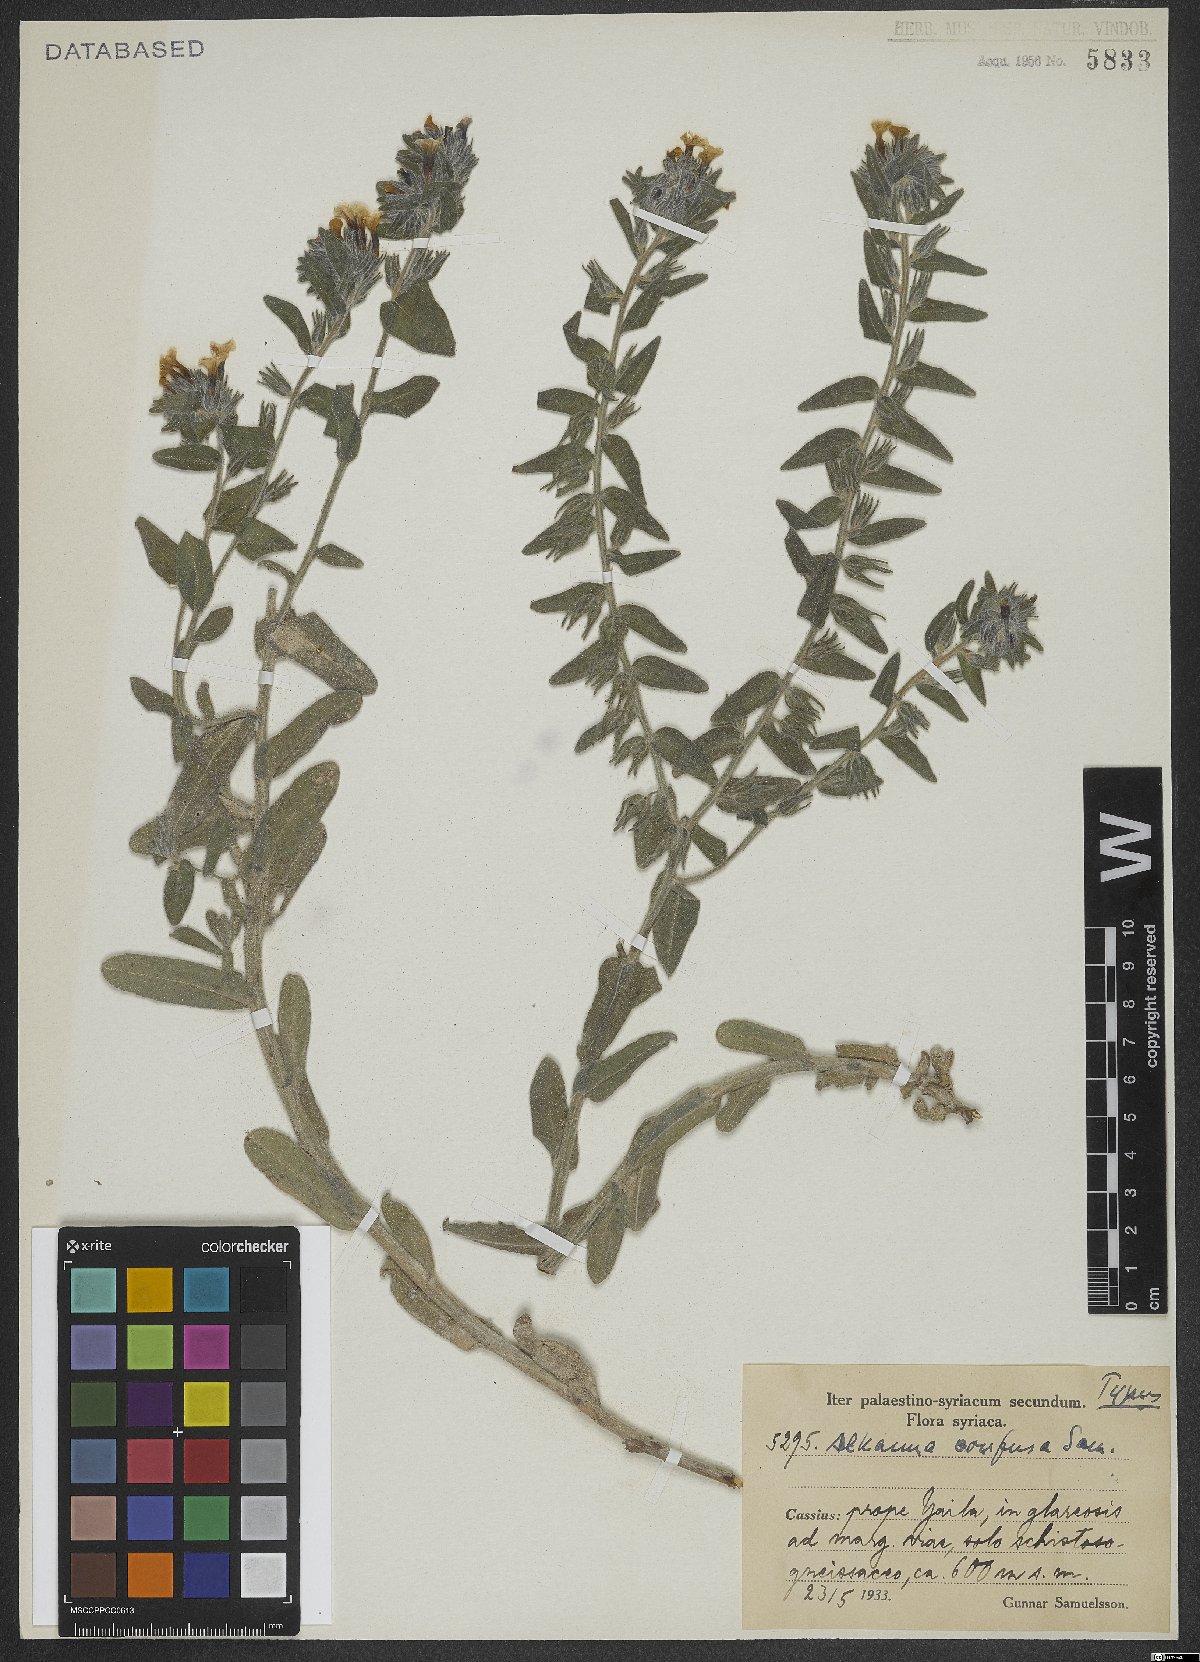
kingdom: Plantae
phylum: Tracheophyta
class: Magnoliopsida
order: Boraginales
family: Boraginaceae
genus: Alkanna
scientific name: Alkanna confusa
